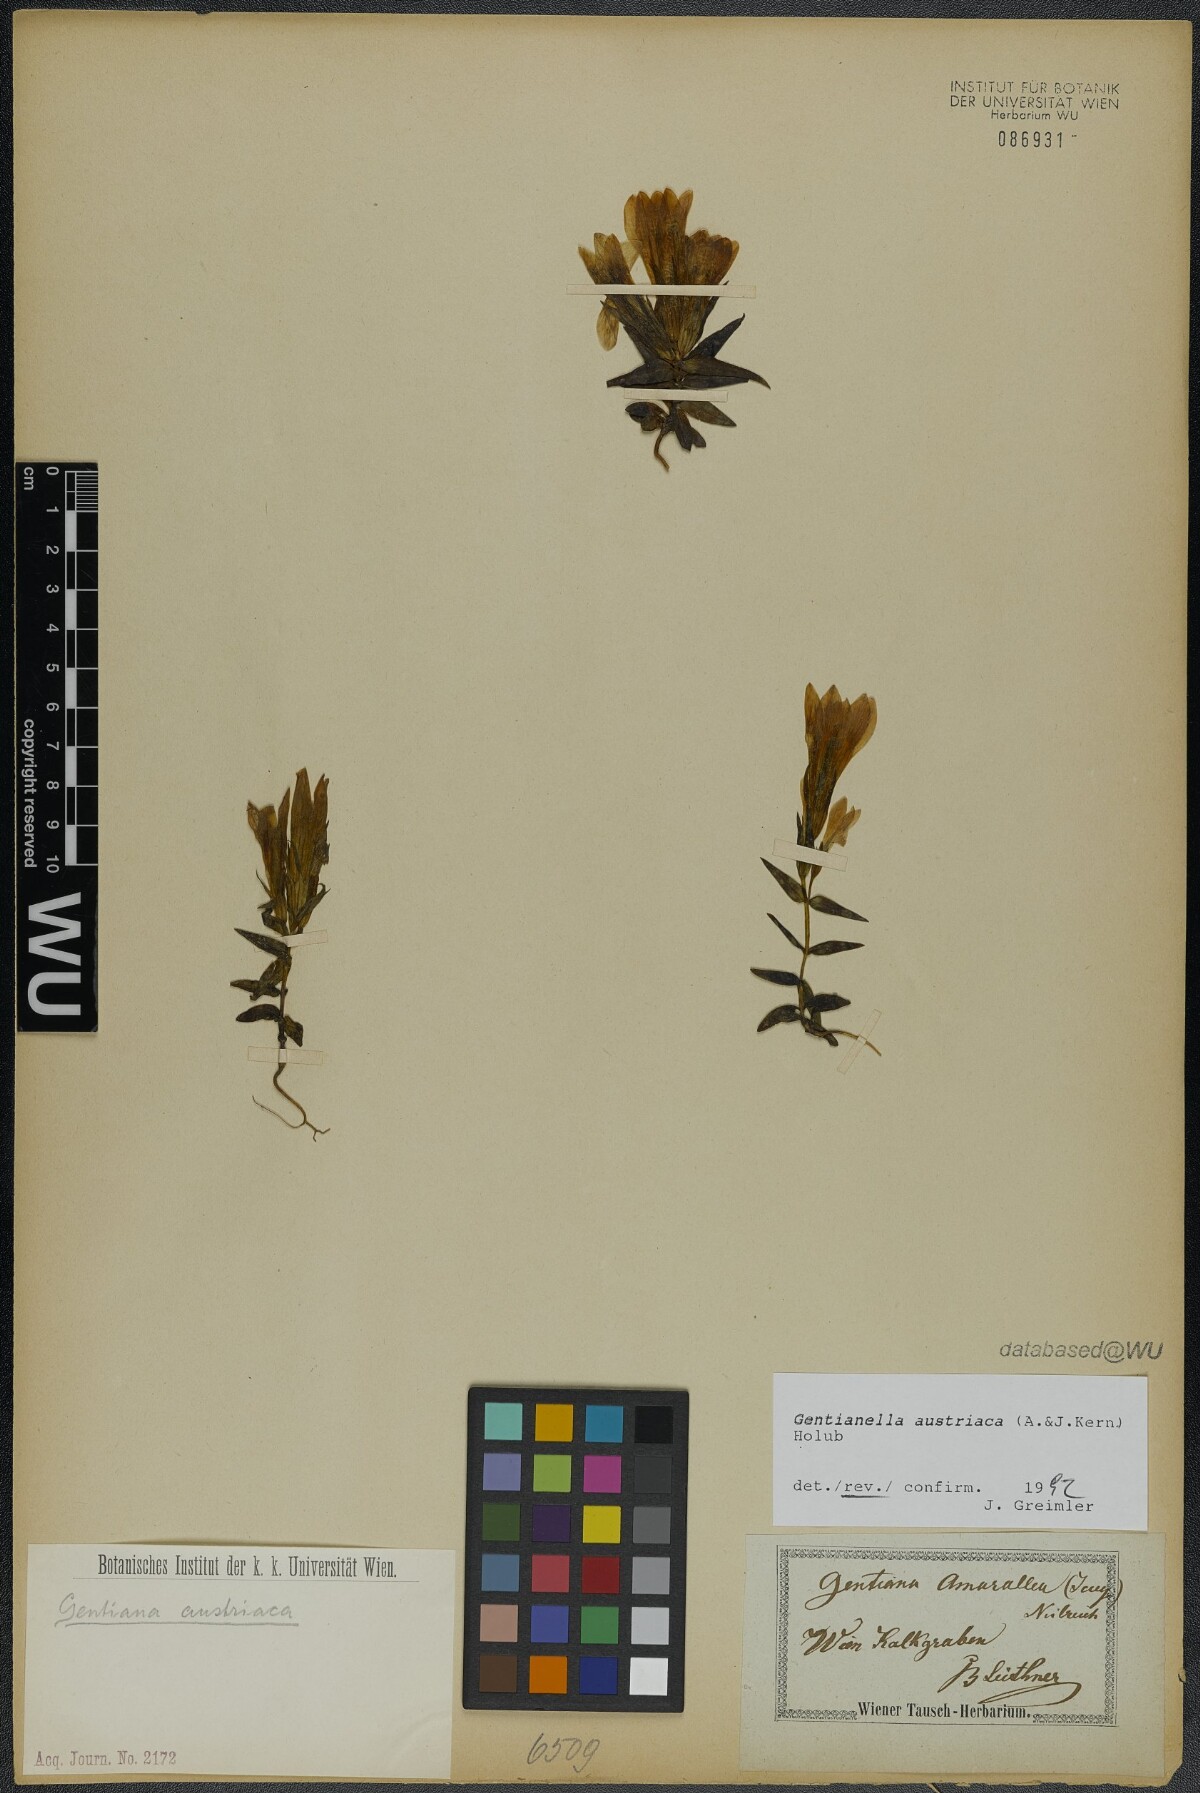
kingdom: Plantae
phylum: Tracheophyta
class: Magnoliopsida
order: Gentianales
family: Gentianaceae
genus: Gentianella
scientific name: Gentianella austriaca
